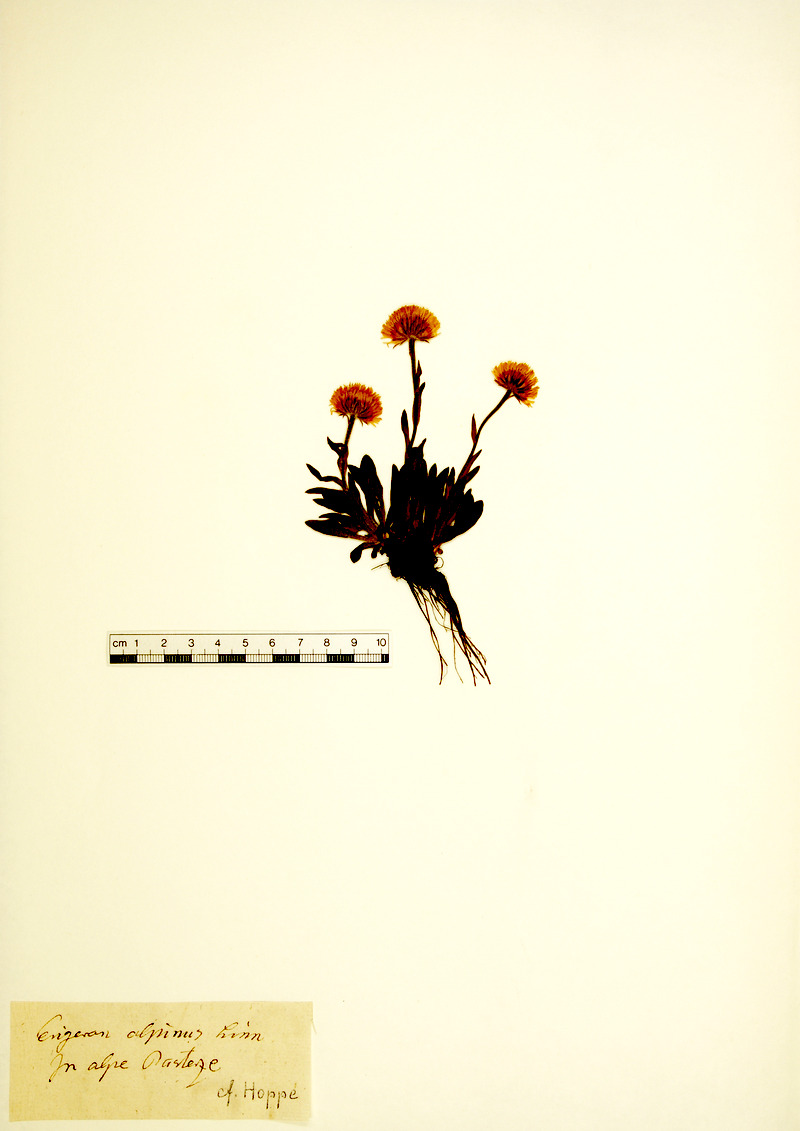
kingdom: Plantae
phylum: Tracheophyta
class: Magnoliopsida
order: Asterales
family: Asteraceae
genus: Erigeron
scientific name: Erigeron alpinus
